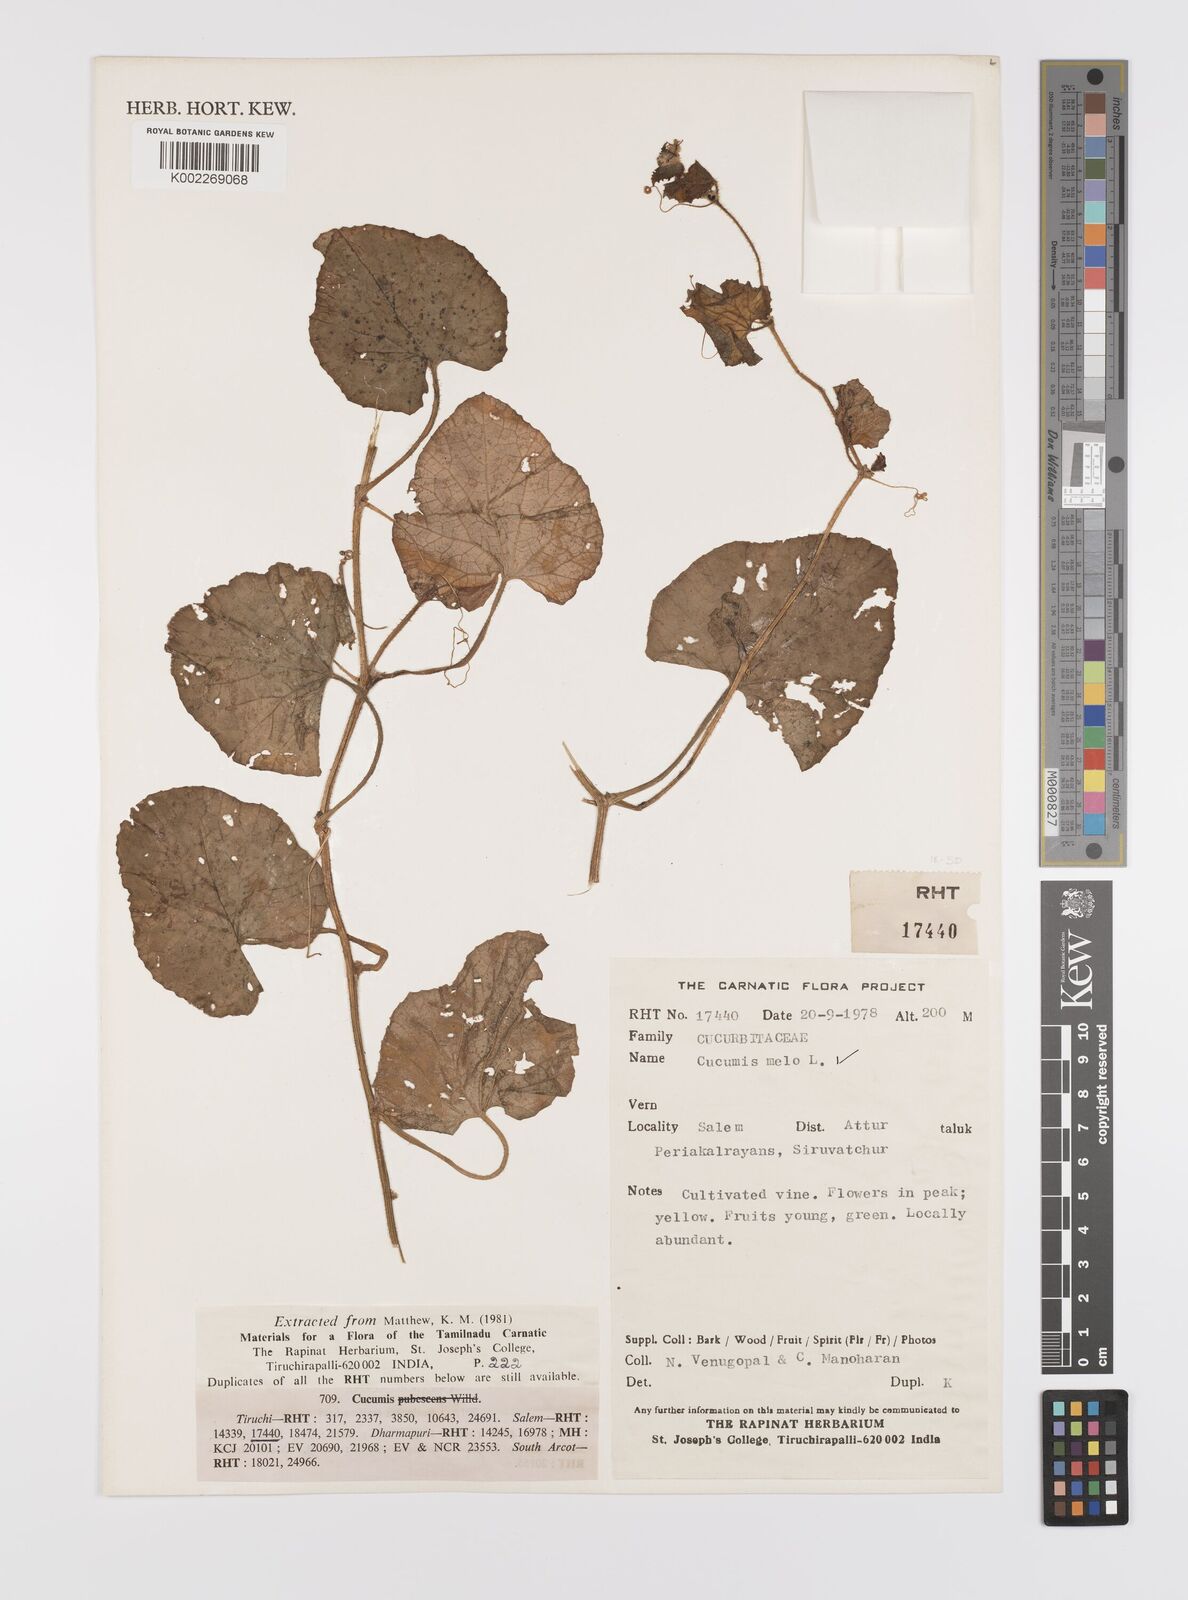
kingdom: Plantae
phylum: Tracheophyta
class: Magnoliopsida
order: Cucurbitales
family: Cucurbitaceae
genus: Cucumis
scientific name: Cucumis melo
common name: Melon
